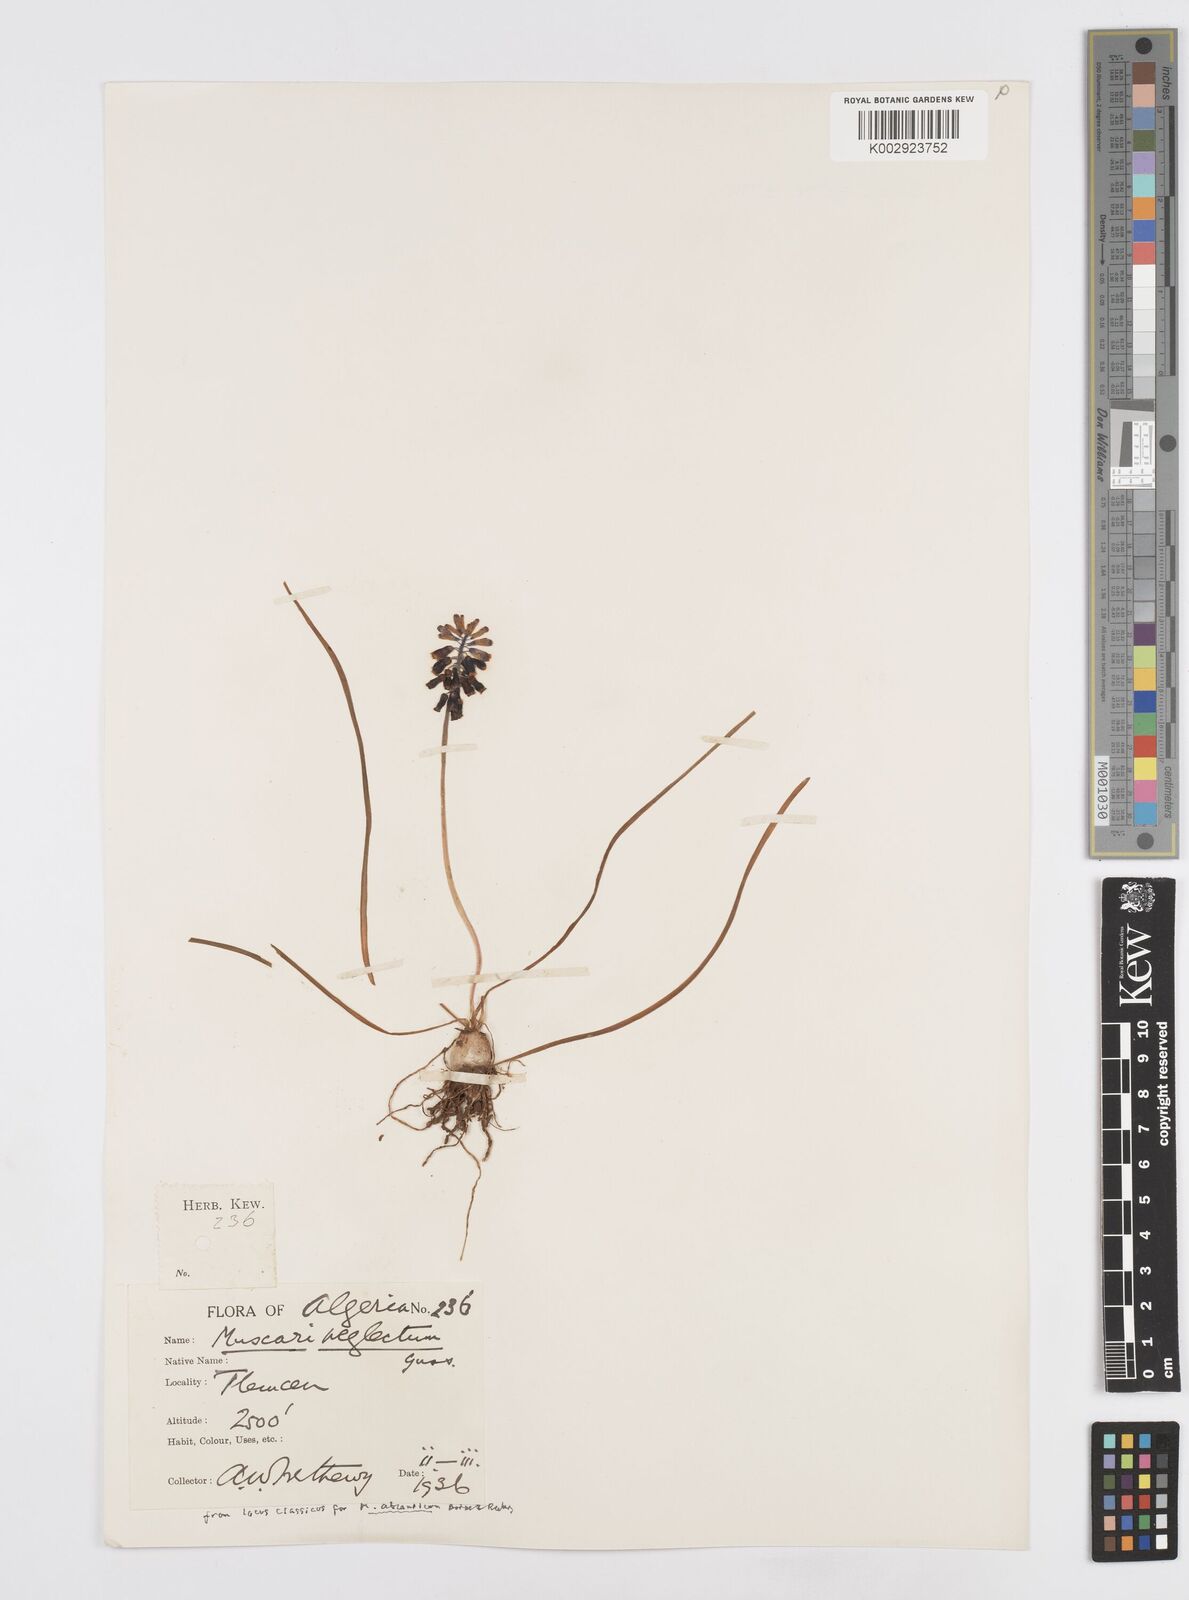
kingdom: Plantae
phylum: Tracheophyta
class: Liliopsida
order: Asparagales
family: Asparagaceae
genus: Muscari
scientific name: Muscari neglectum
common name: Grape-hyacinth
